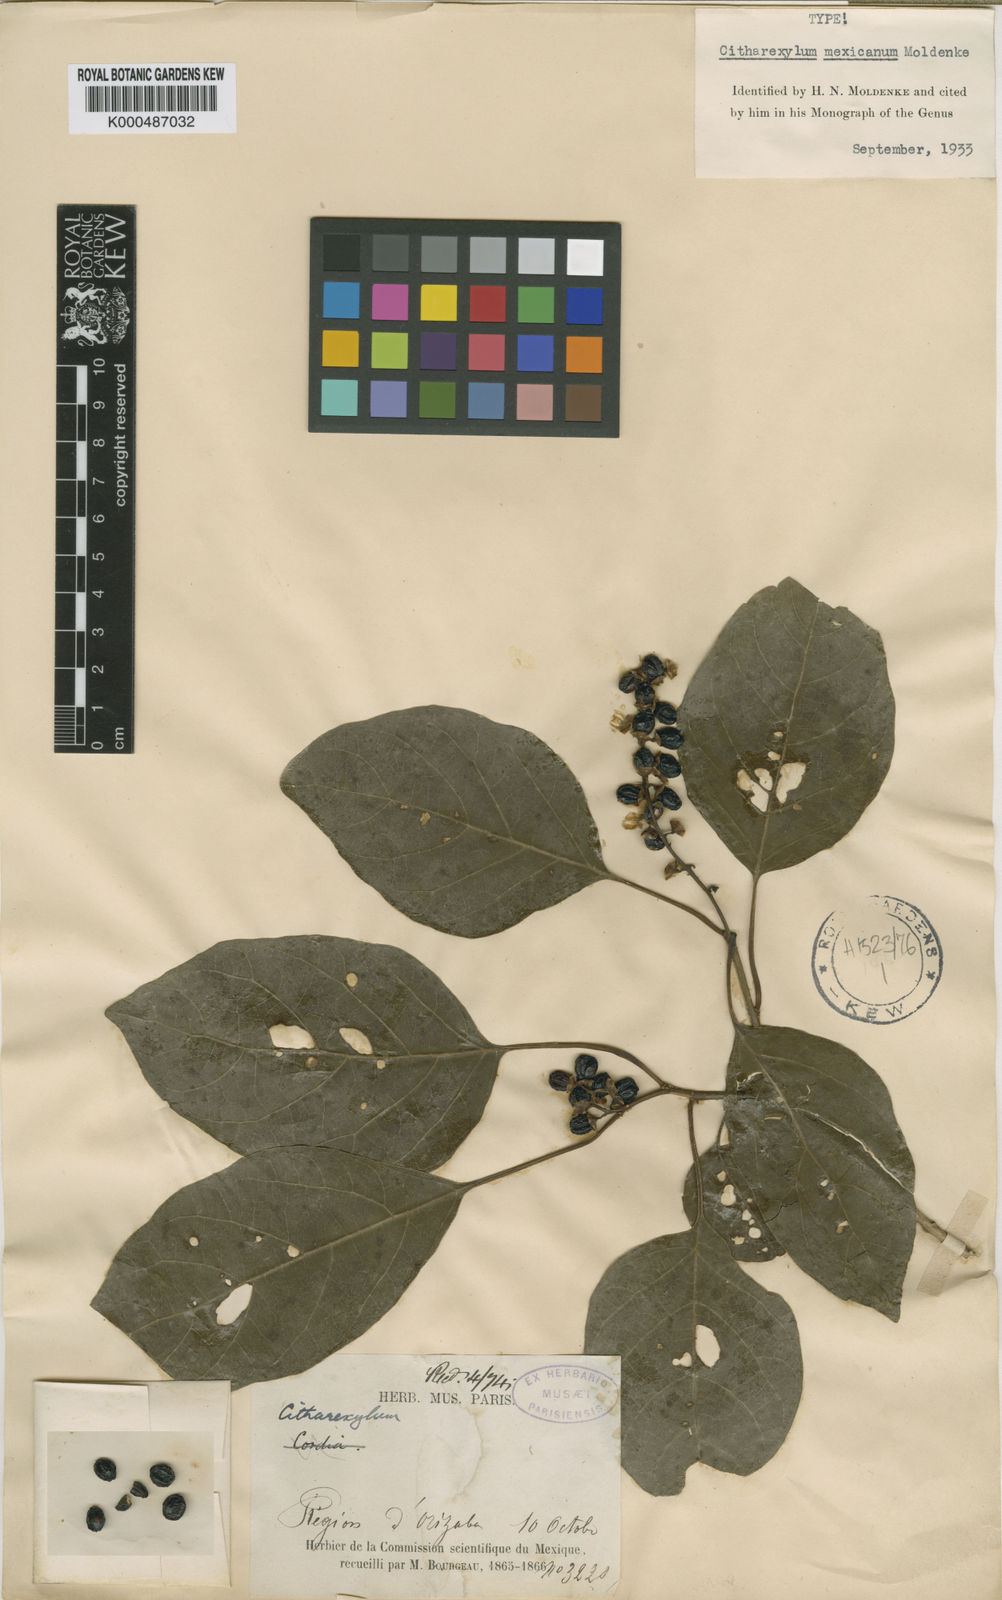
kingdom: Plantae
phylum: Tracheophyta
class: Magnoliopsida
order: Lamiales
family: Verbenaceae
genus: Citharexylum
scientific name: Citharexylum mexicanum
